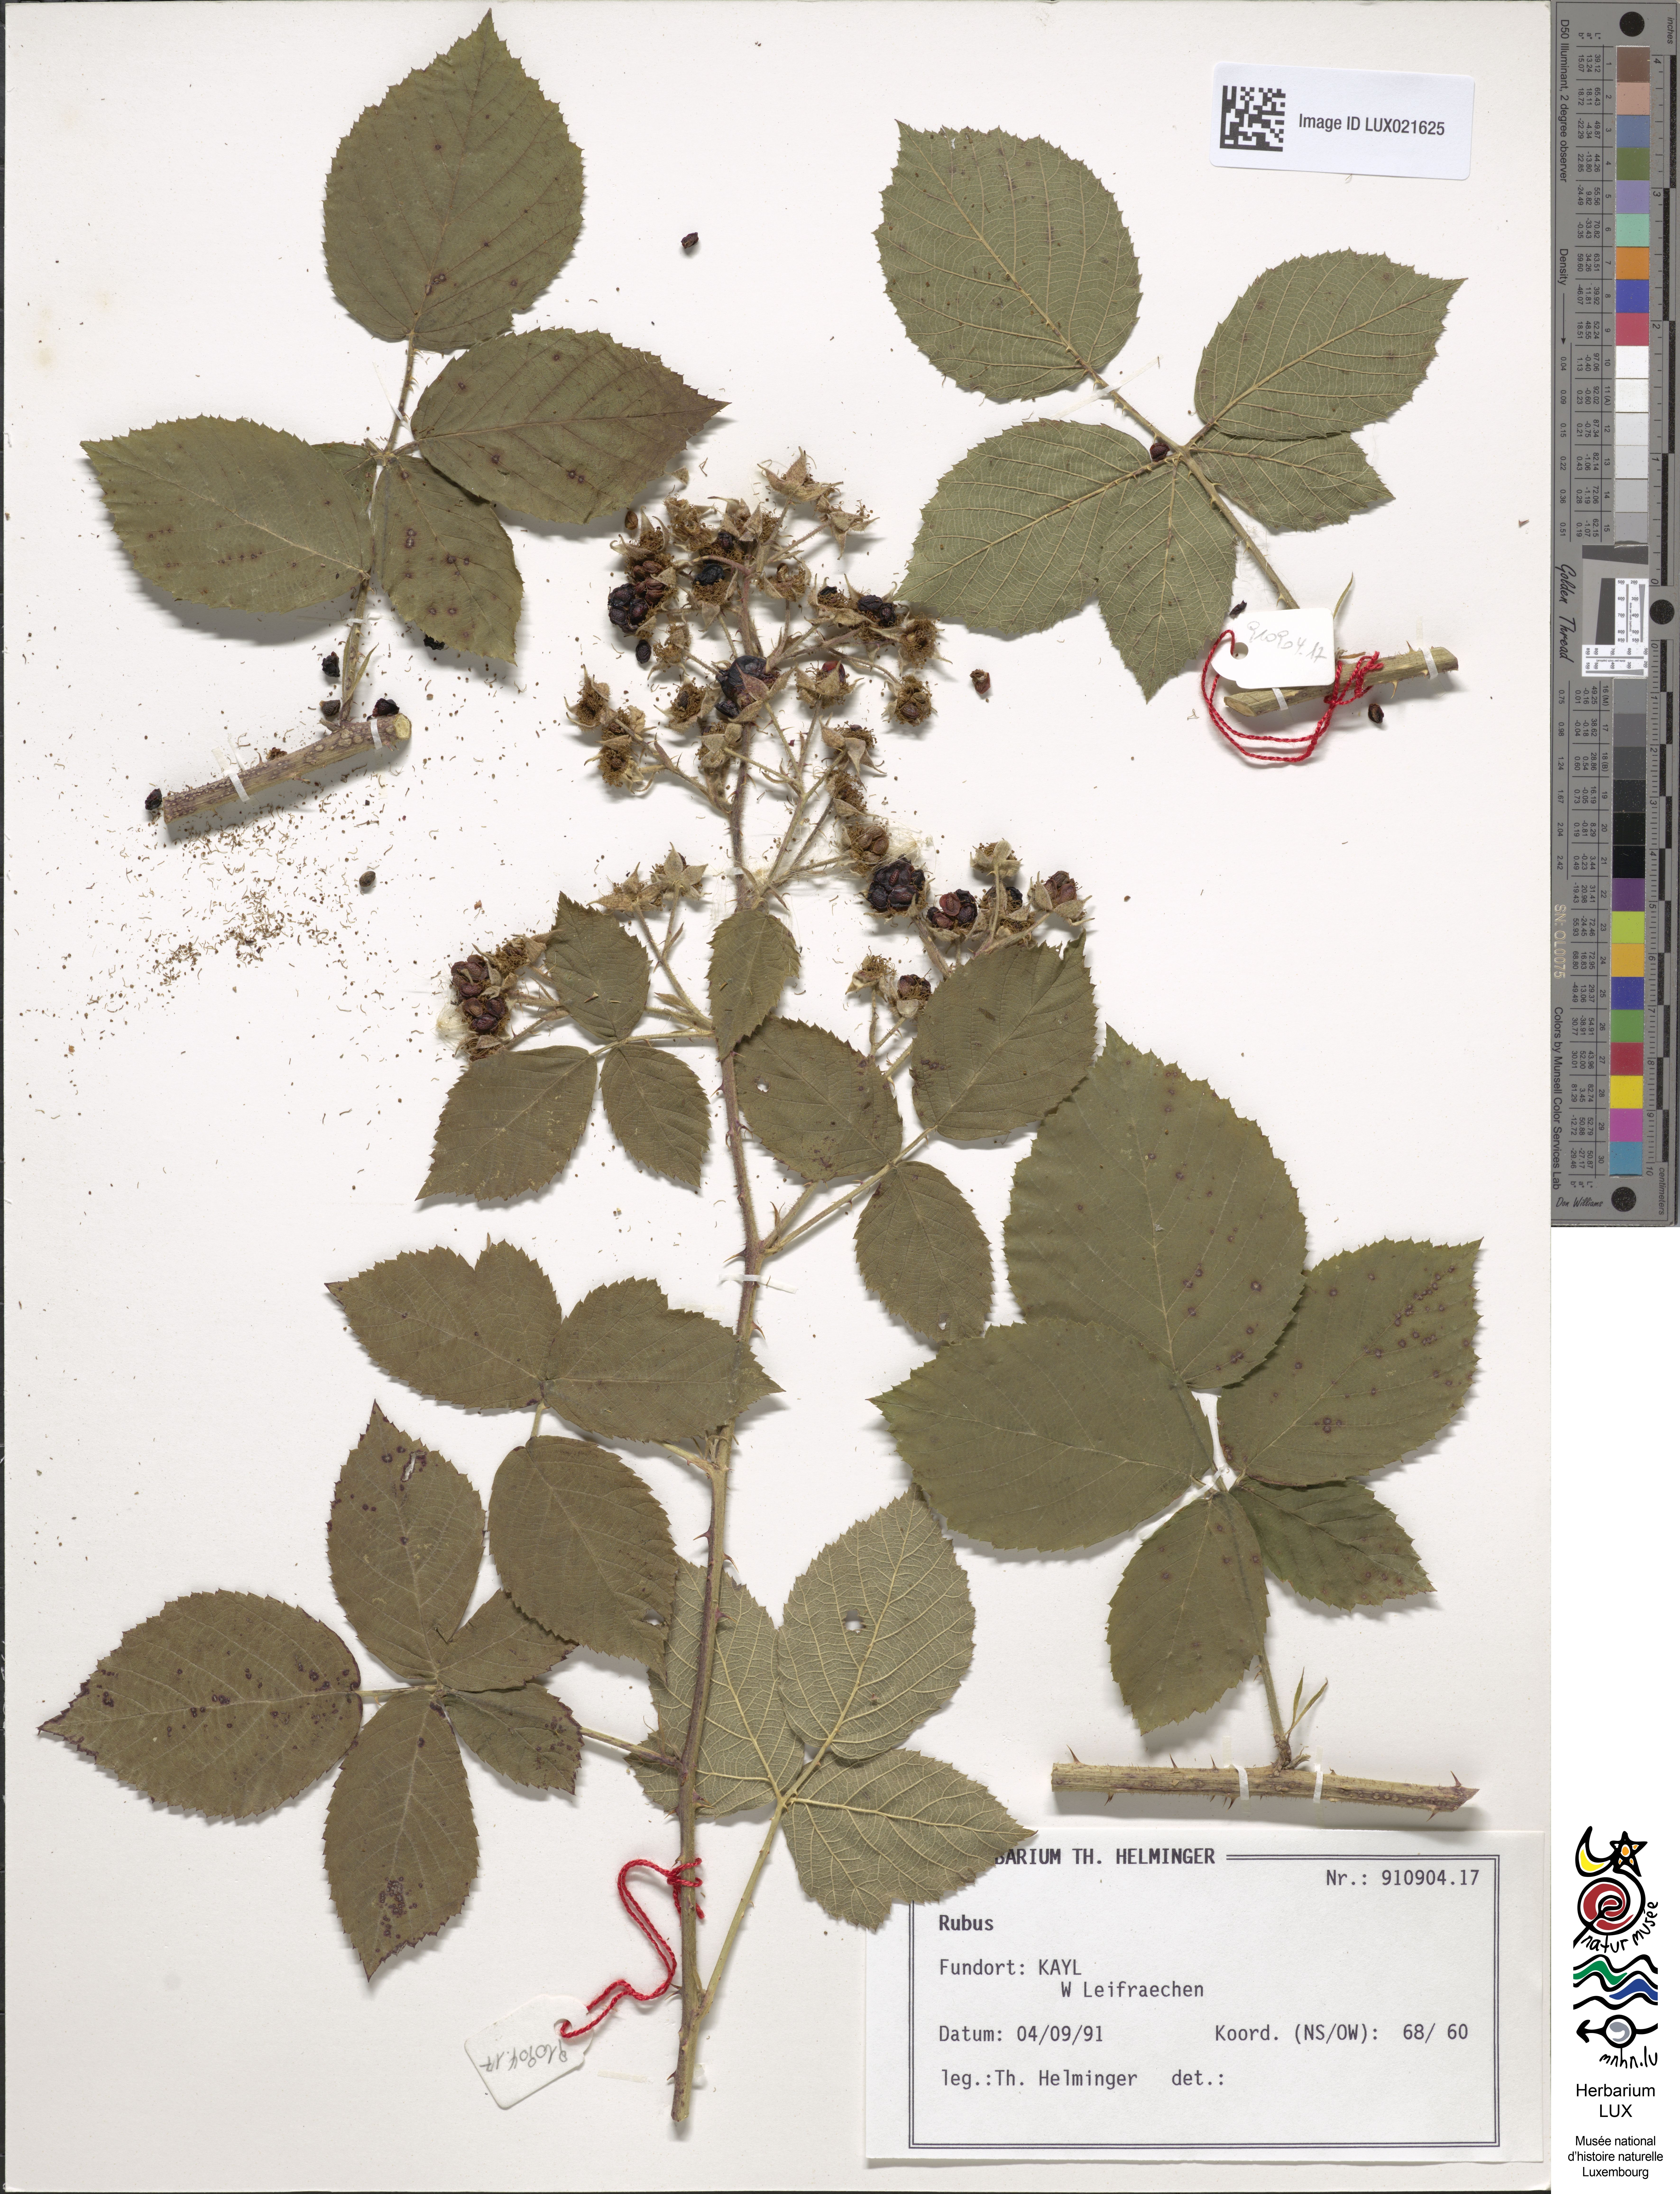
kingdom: Plantae
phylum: Tracheophyta
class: Magnoliopsida
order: Rosales
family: Rosaceae
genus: Rubus
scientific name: Rubus
